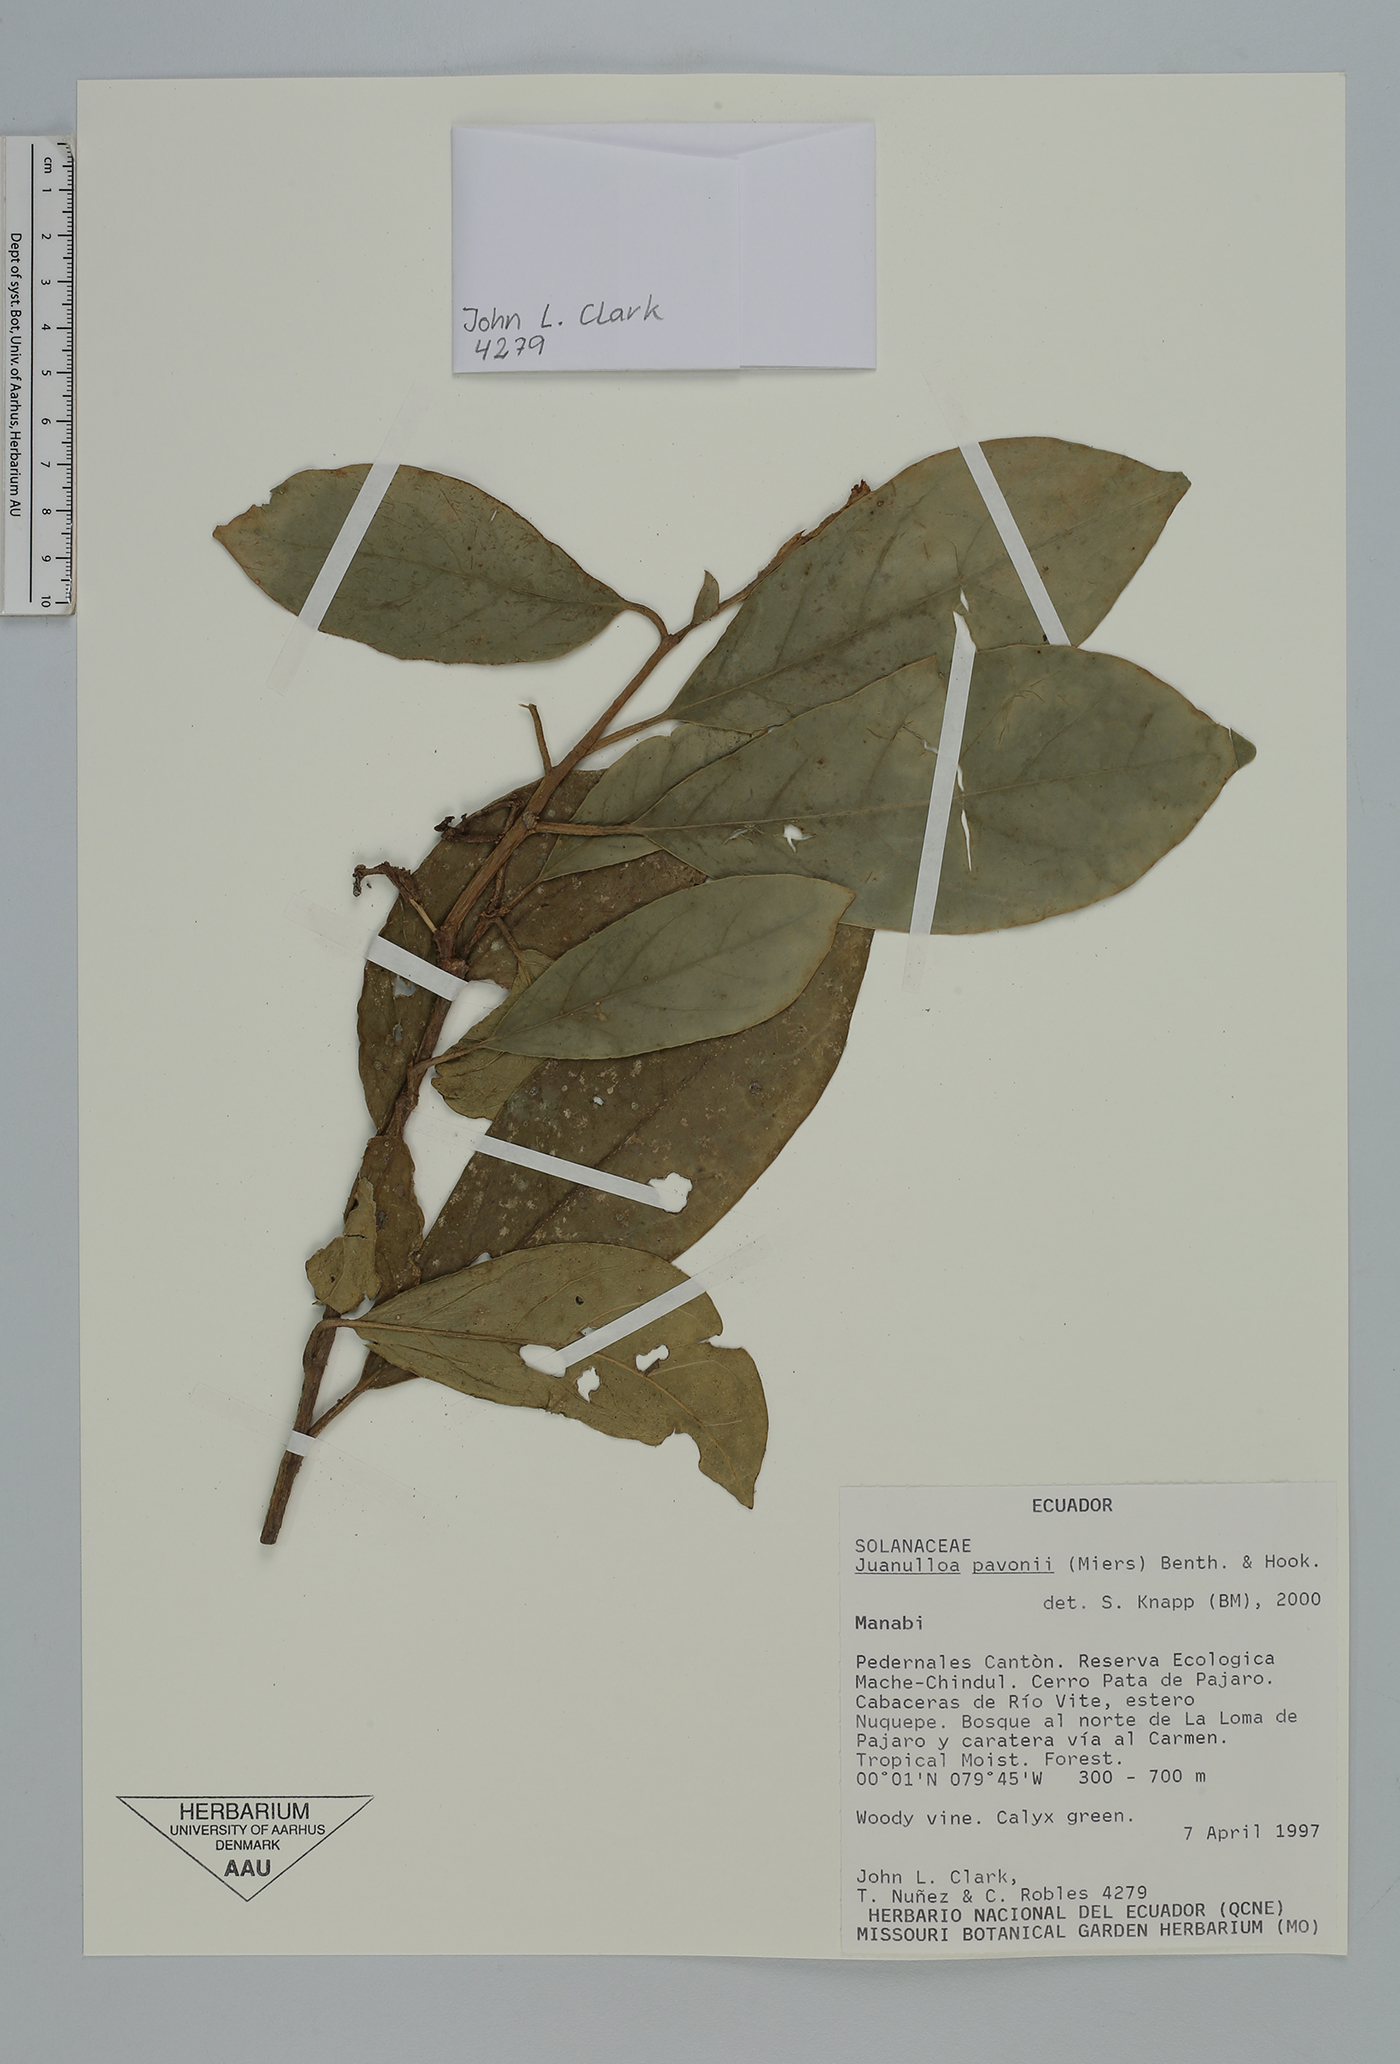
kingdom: Plantae
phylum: Tracheophyta
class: Magnoliopsida
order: Solanales
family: Solanaceae
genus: Markea
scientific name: Markea pavonii
